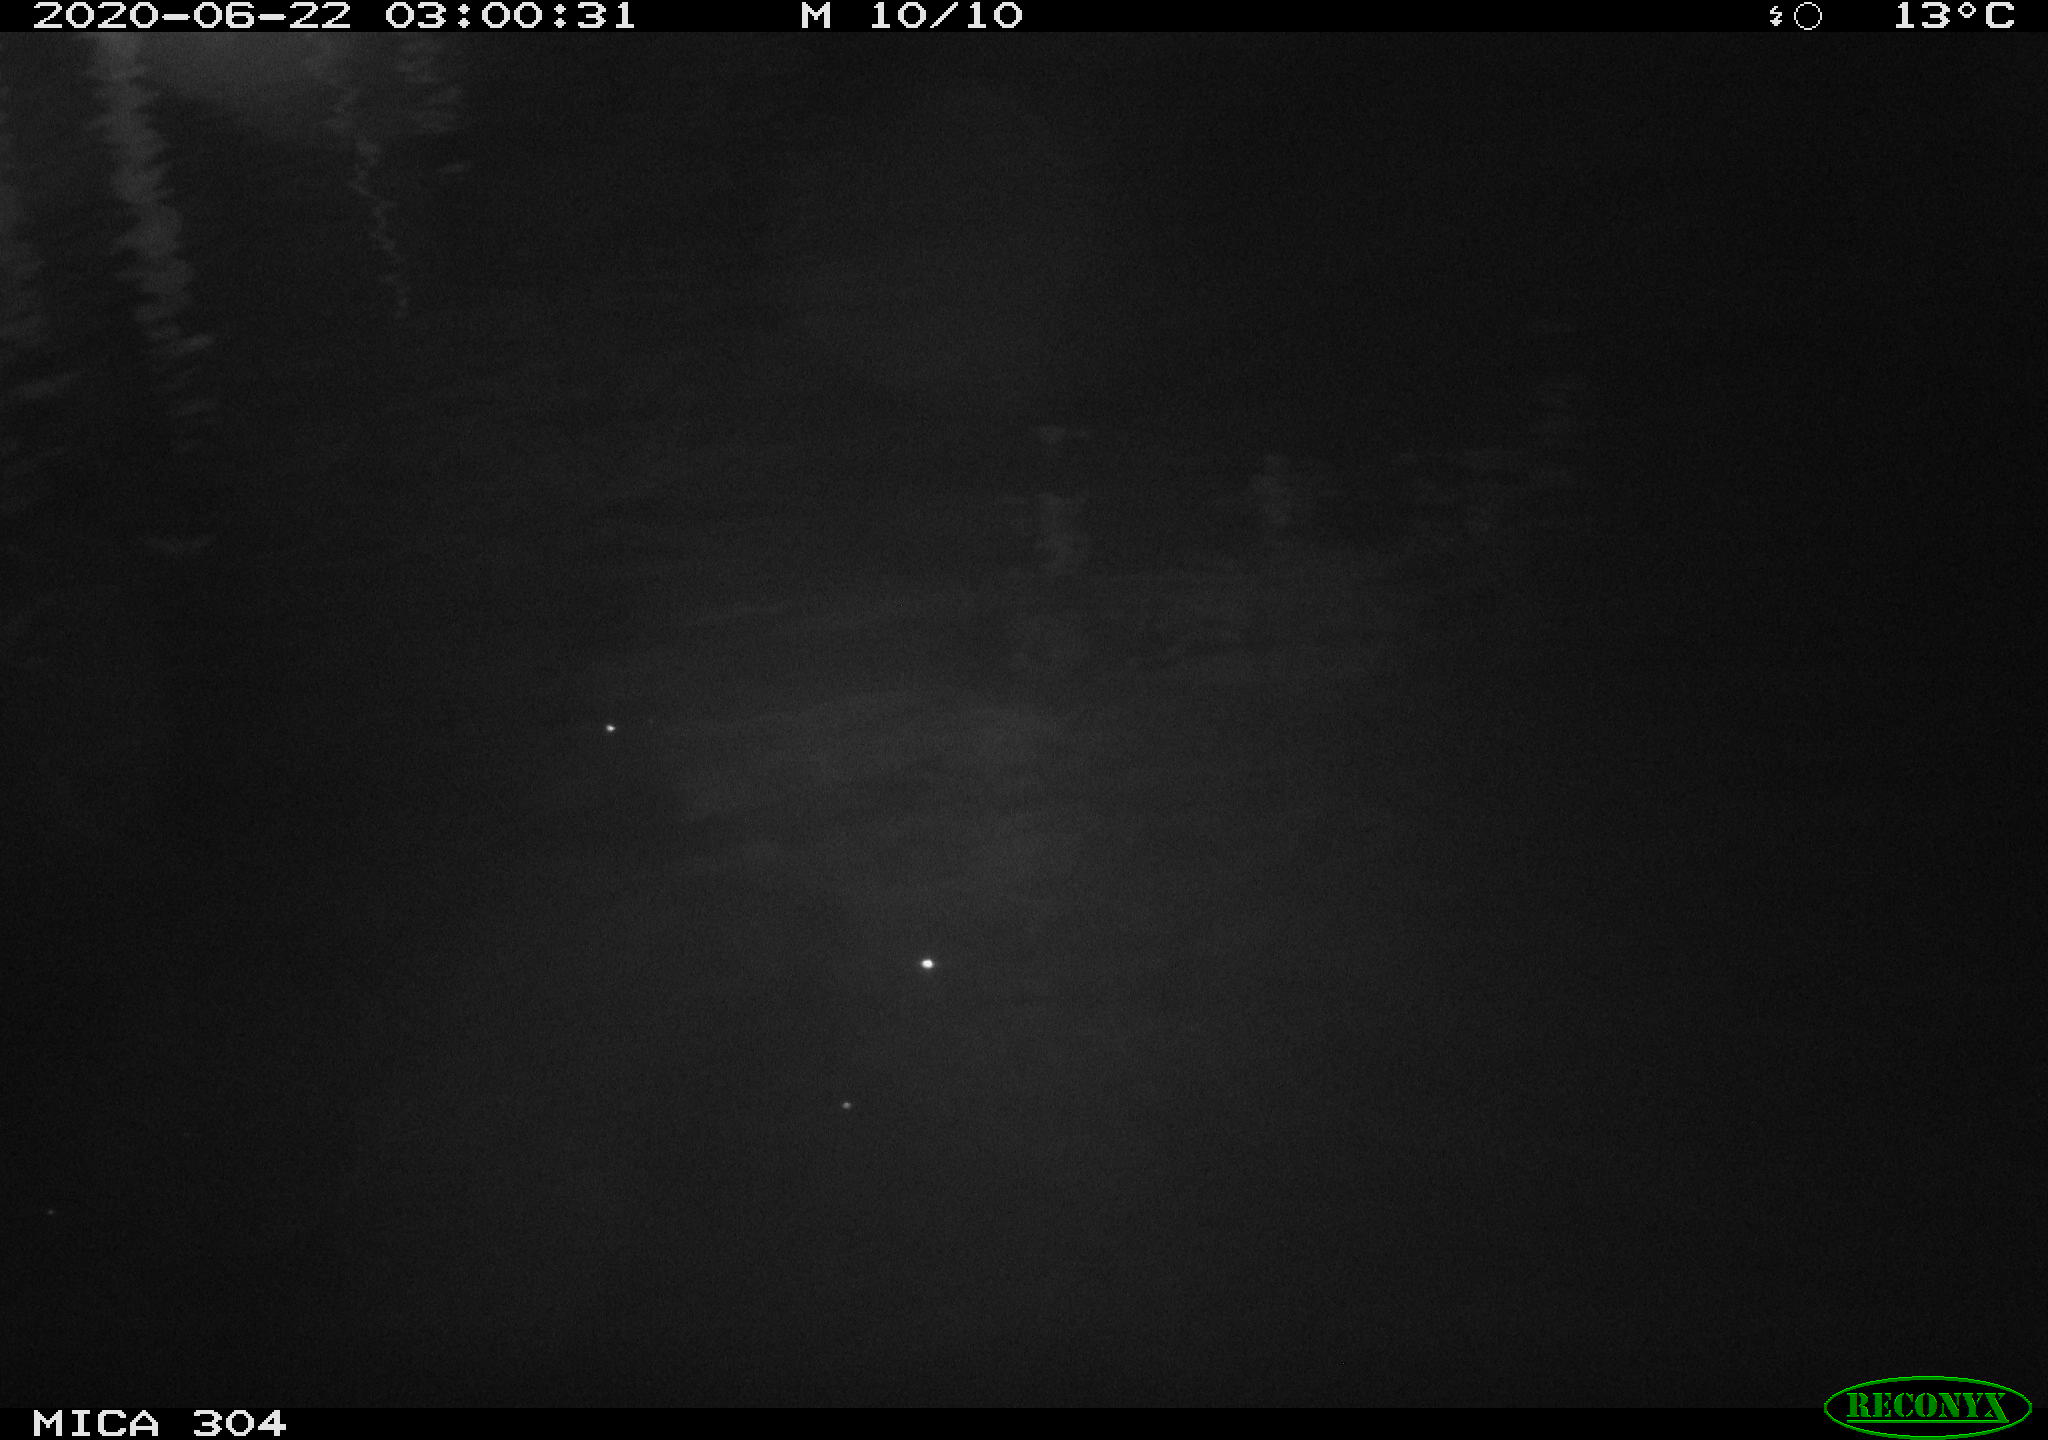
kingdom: Animalia
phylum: Chordata
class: Mammalia
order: Rodentia
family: Cricetidae
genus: Ondatra
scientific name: Ondatra zibethicus
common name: Muskrat
